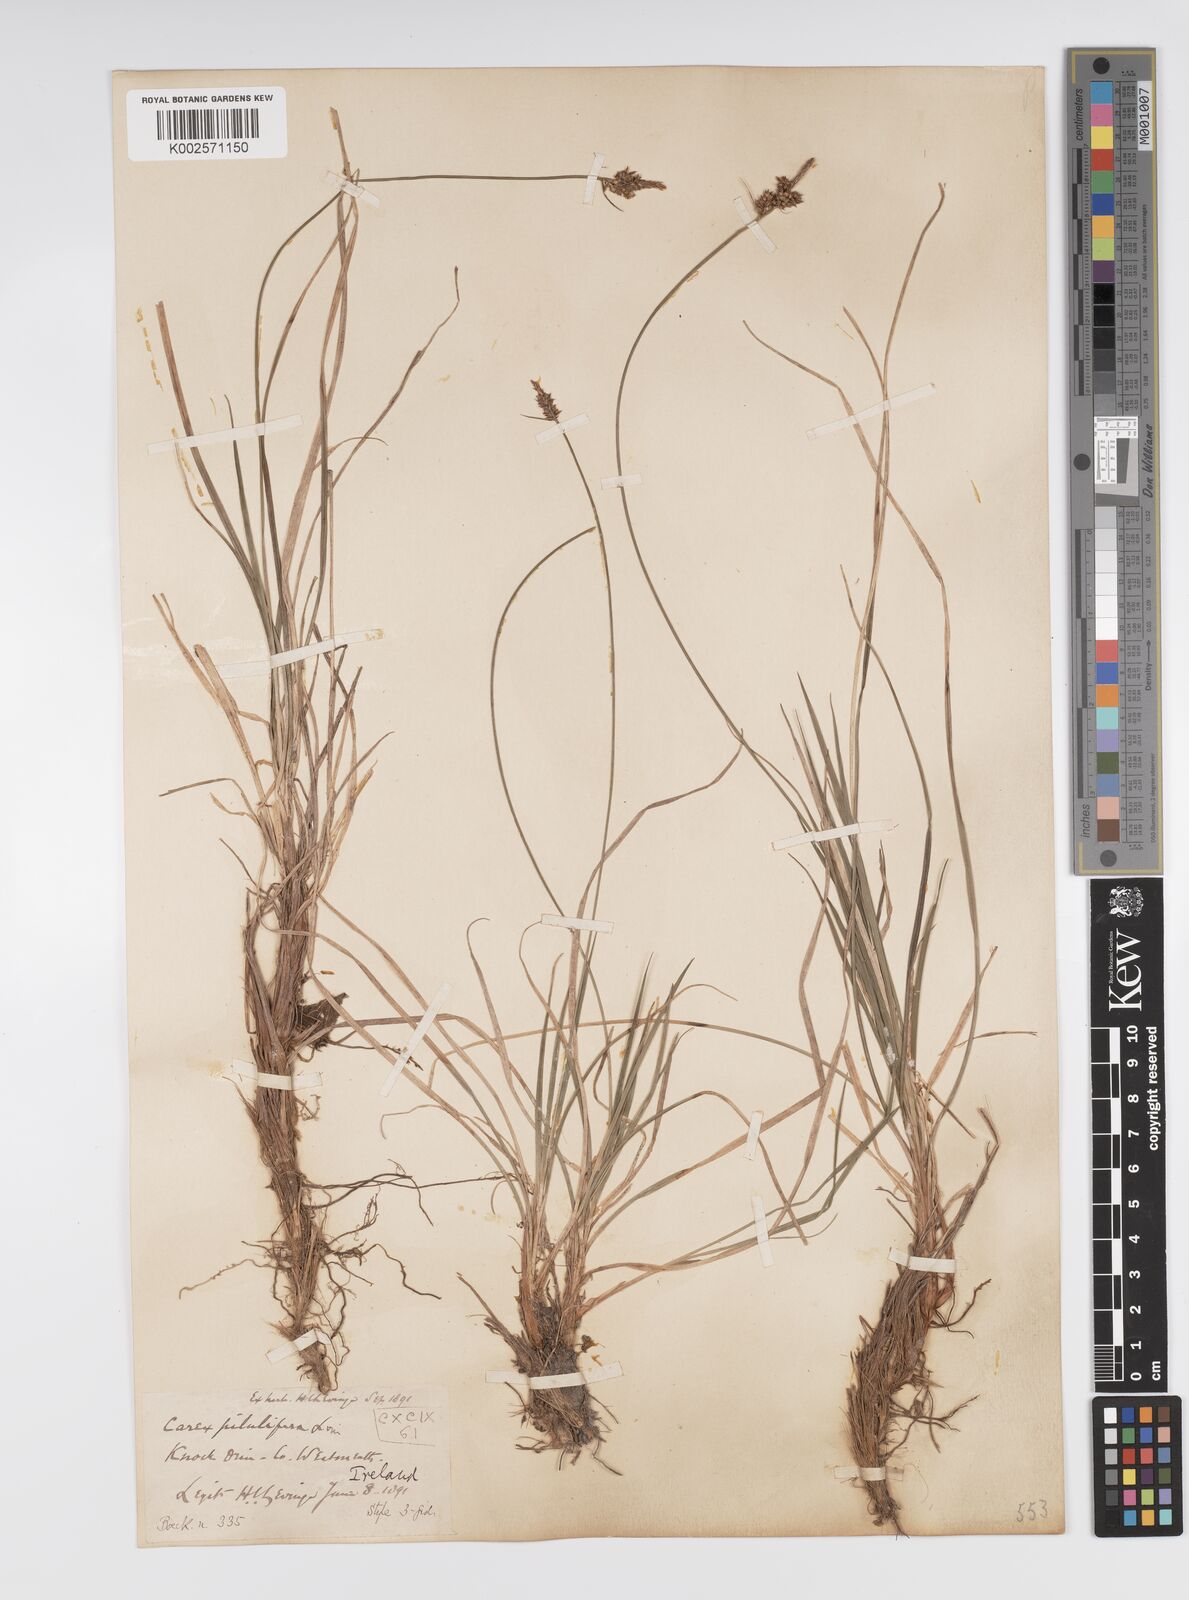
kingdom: Plantae
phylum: Tracheophyta
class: Liliopsida
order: Poales
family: Cyperaceae
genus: Carex
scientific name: Carex pilulifera
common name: Pill sedge
